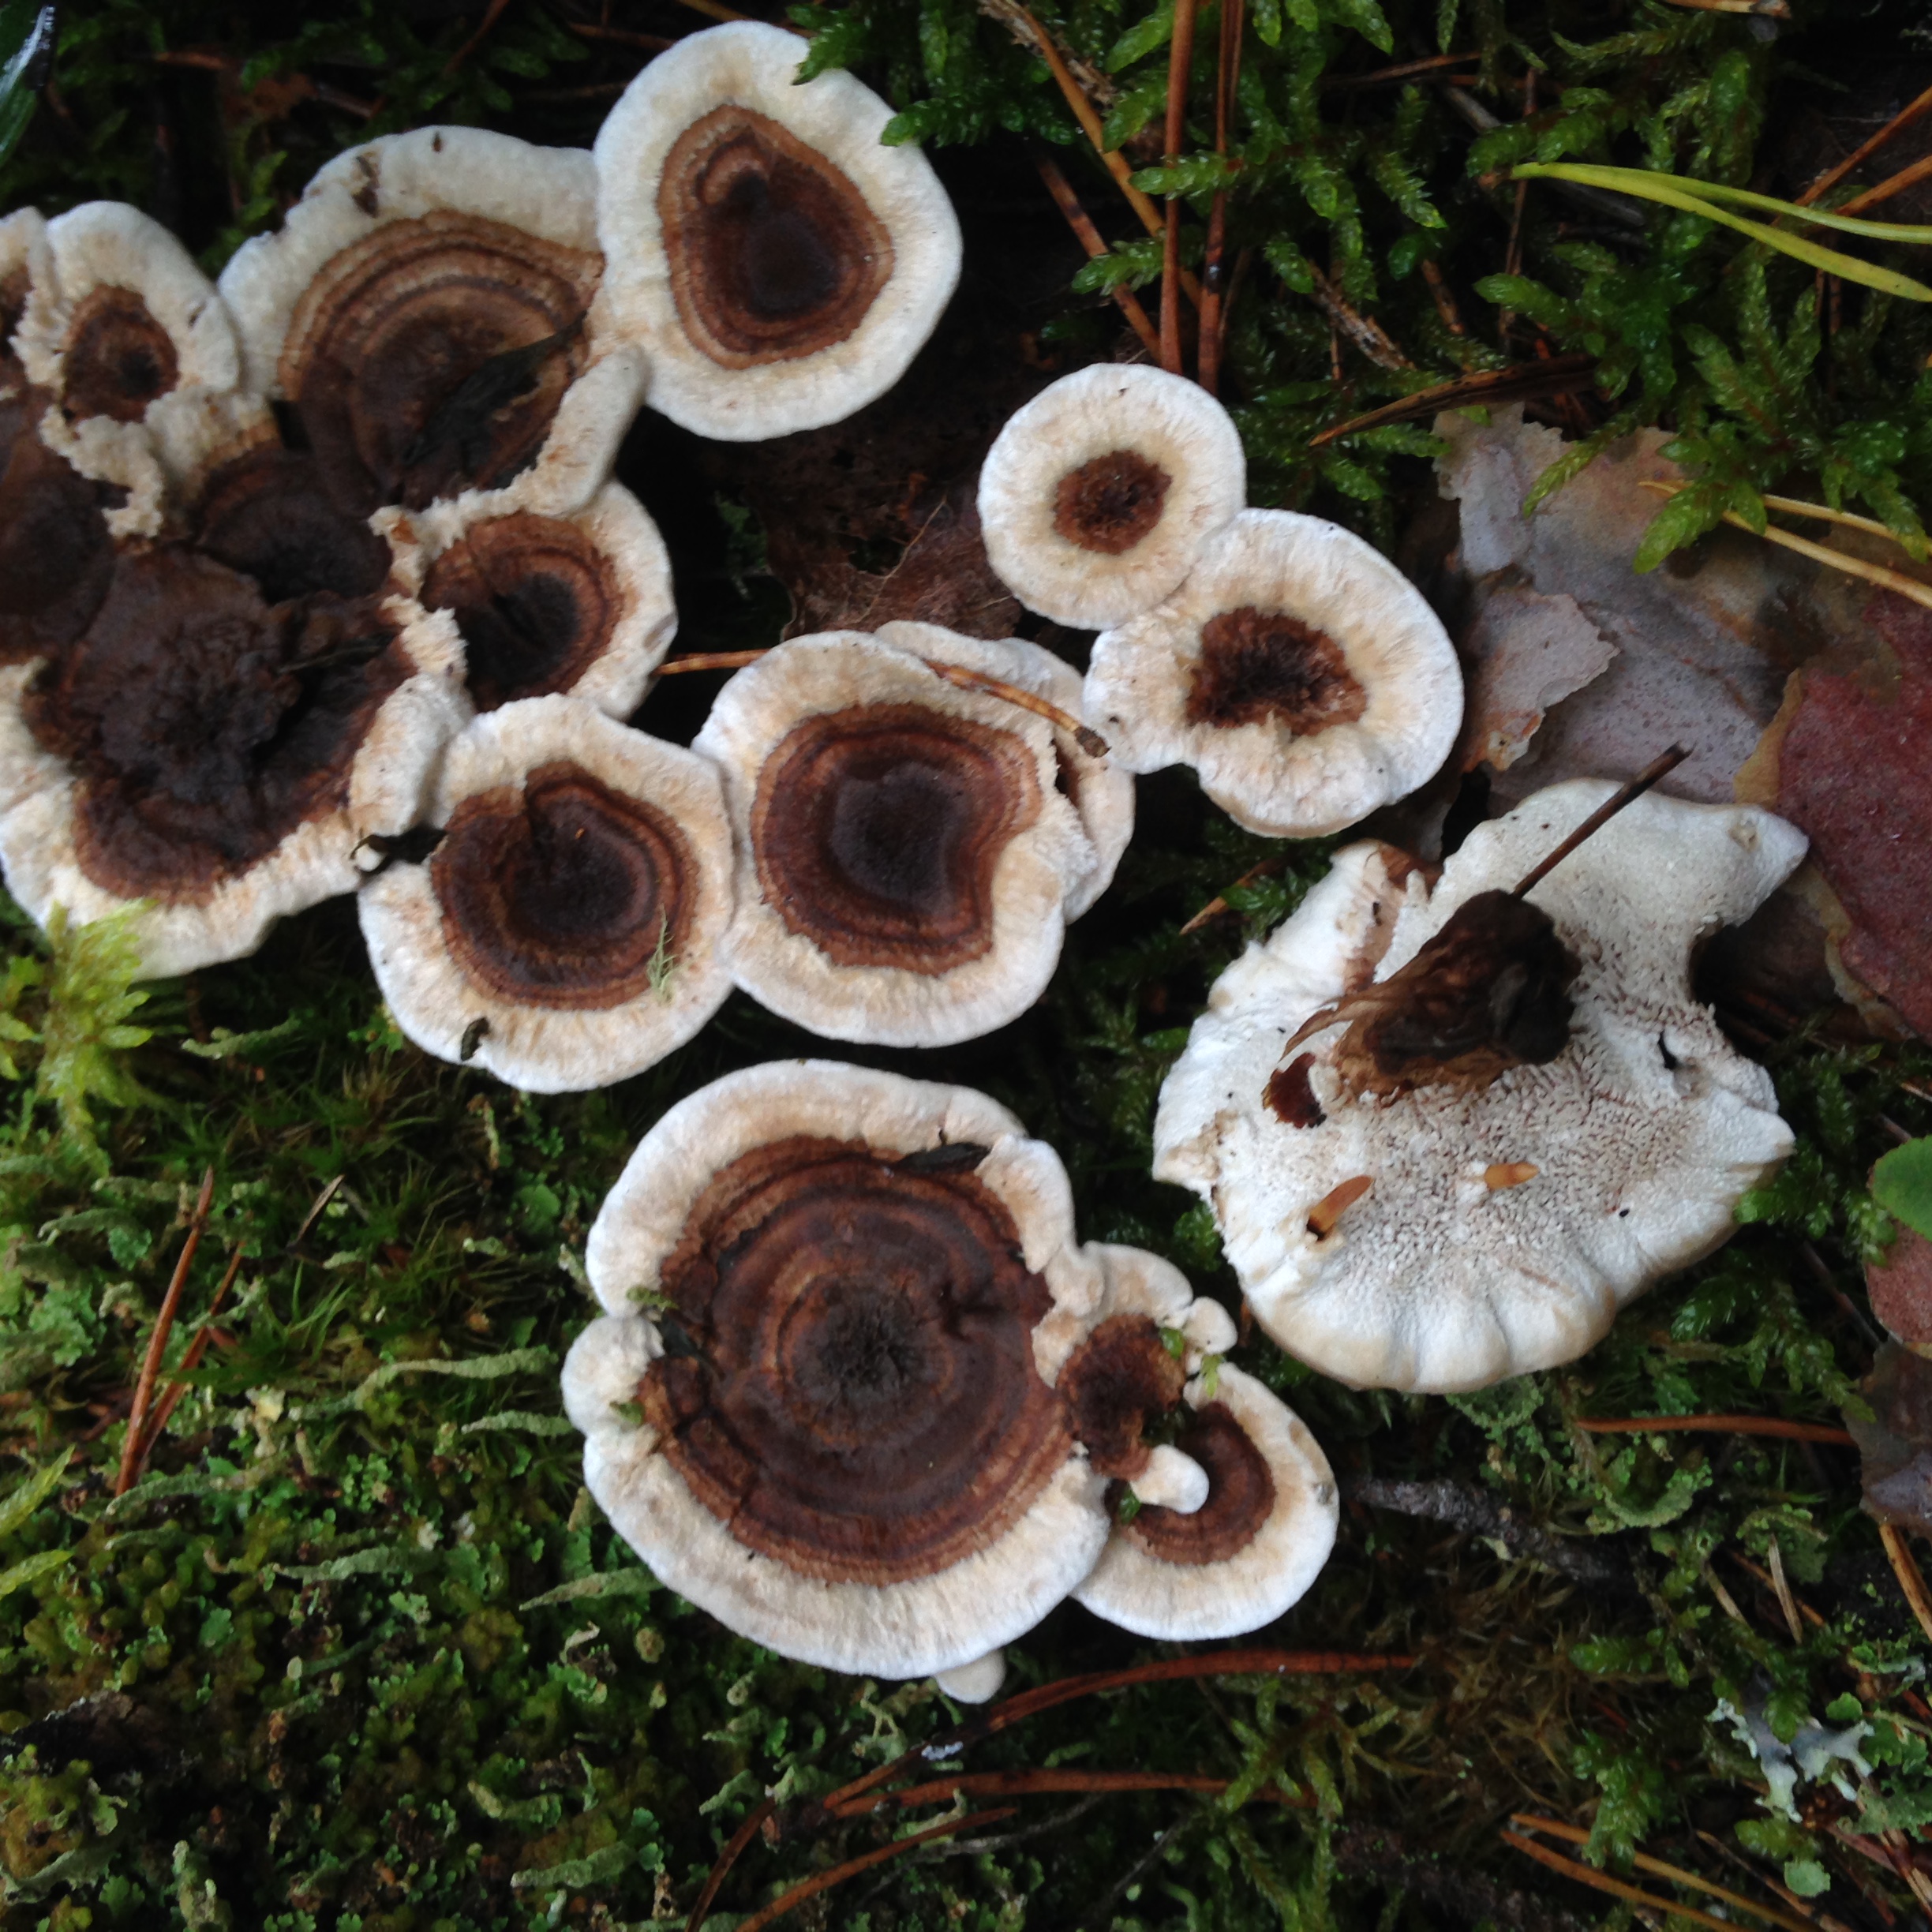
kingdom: Fungi
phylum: Basidiomycota
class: Agaricomycetes
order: Thelephorales
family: Thelephoraceae
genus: Phellodon
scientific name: Phellodon tomentosus
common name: Woolly tooth
